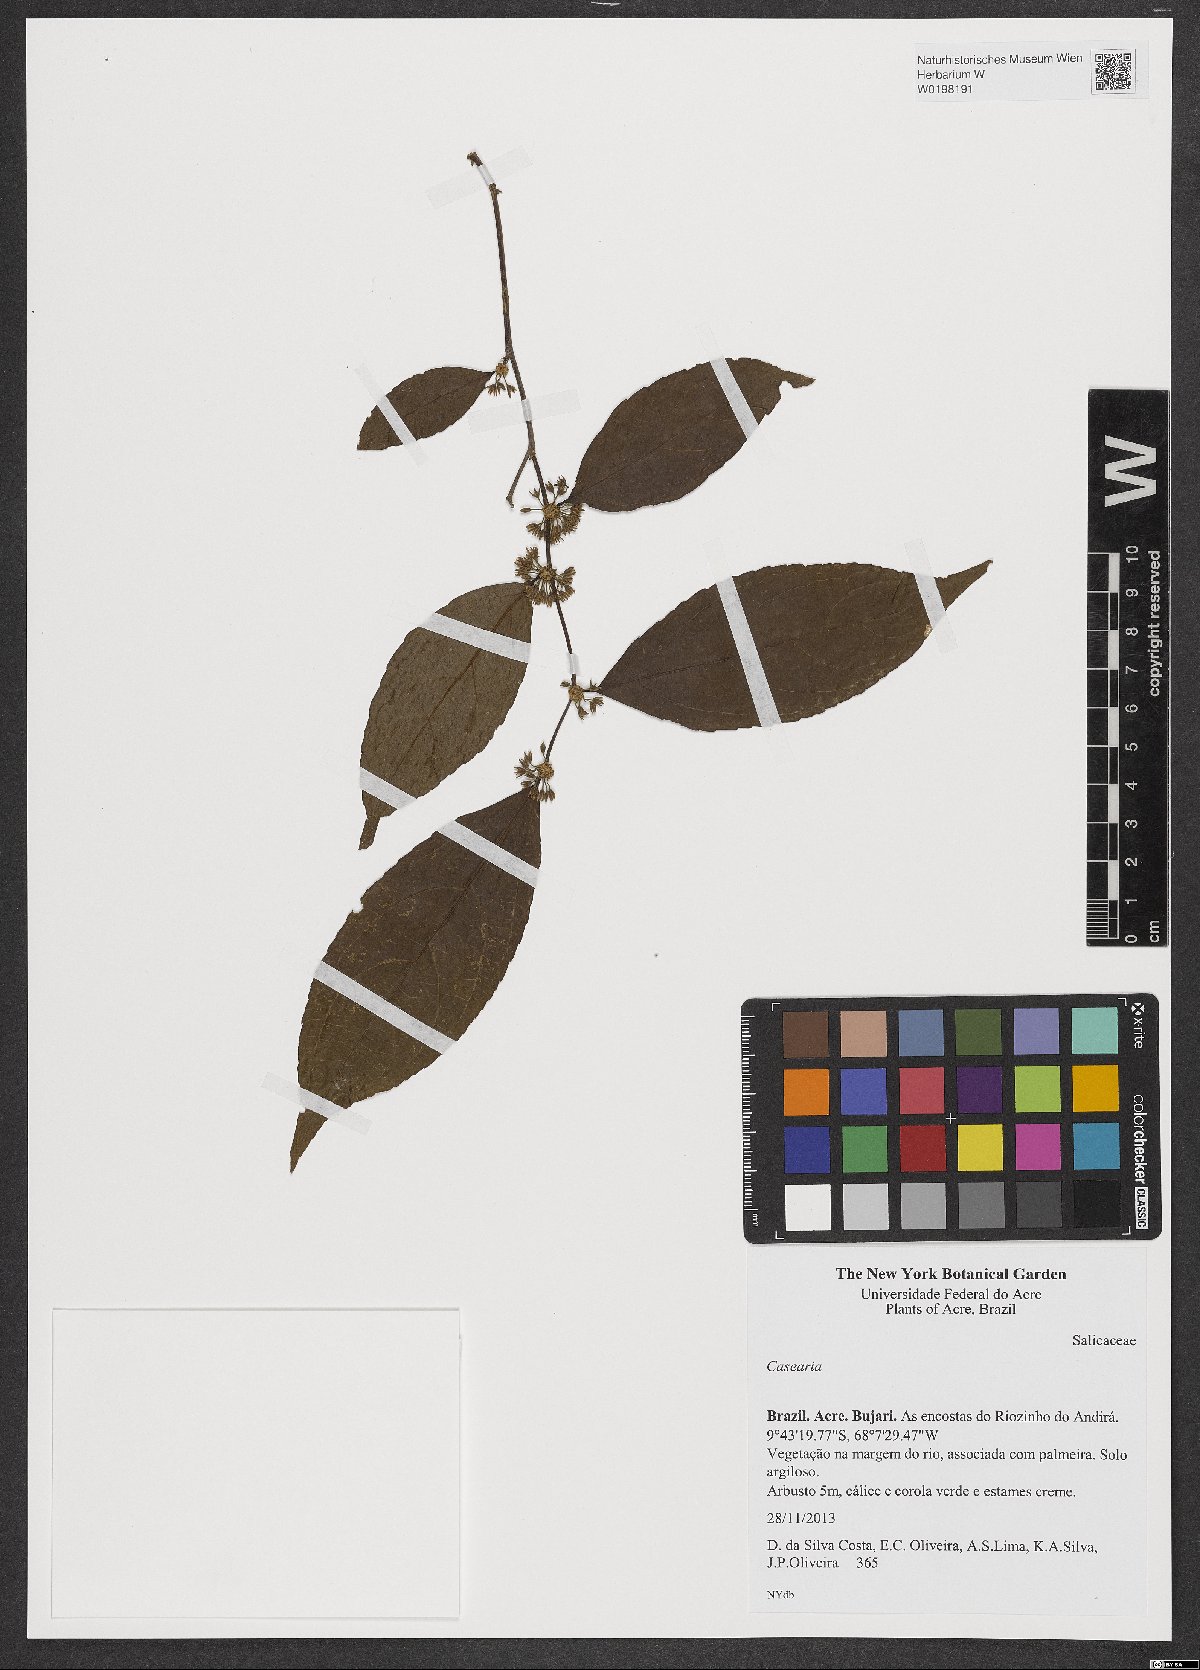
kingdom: Plantae
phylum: Tracheophyta
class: Magnoliopsida
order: Malpighiales
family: Salicaceae
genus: Casearia
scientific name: Casearia
